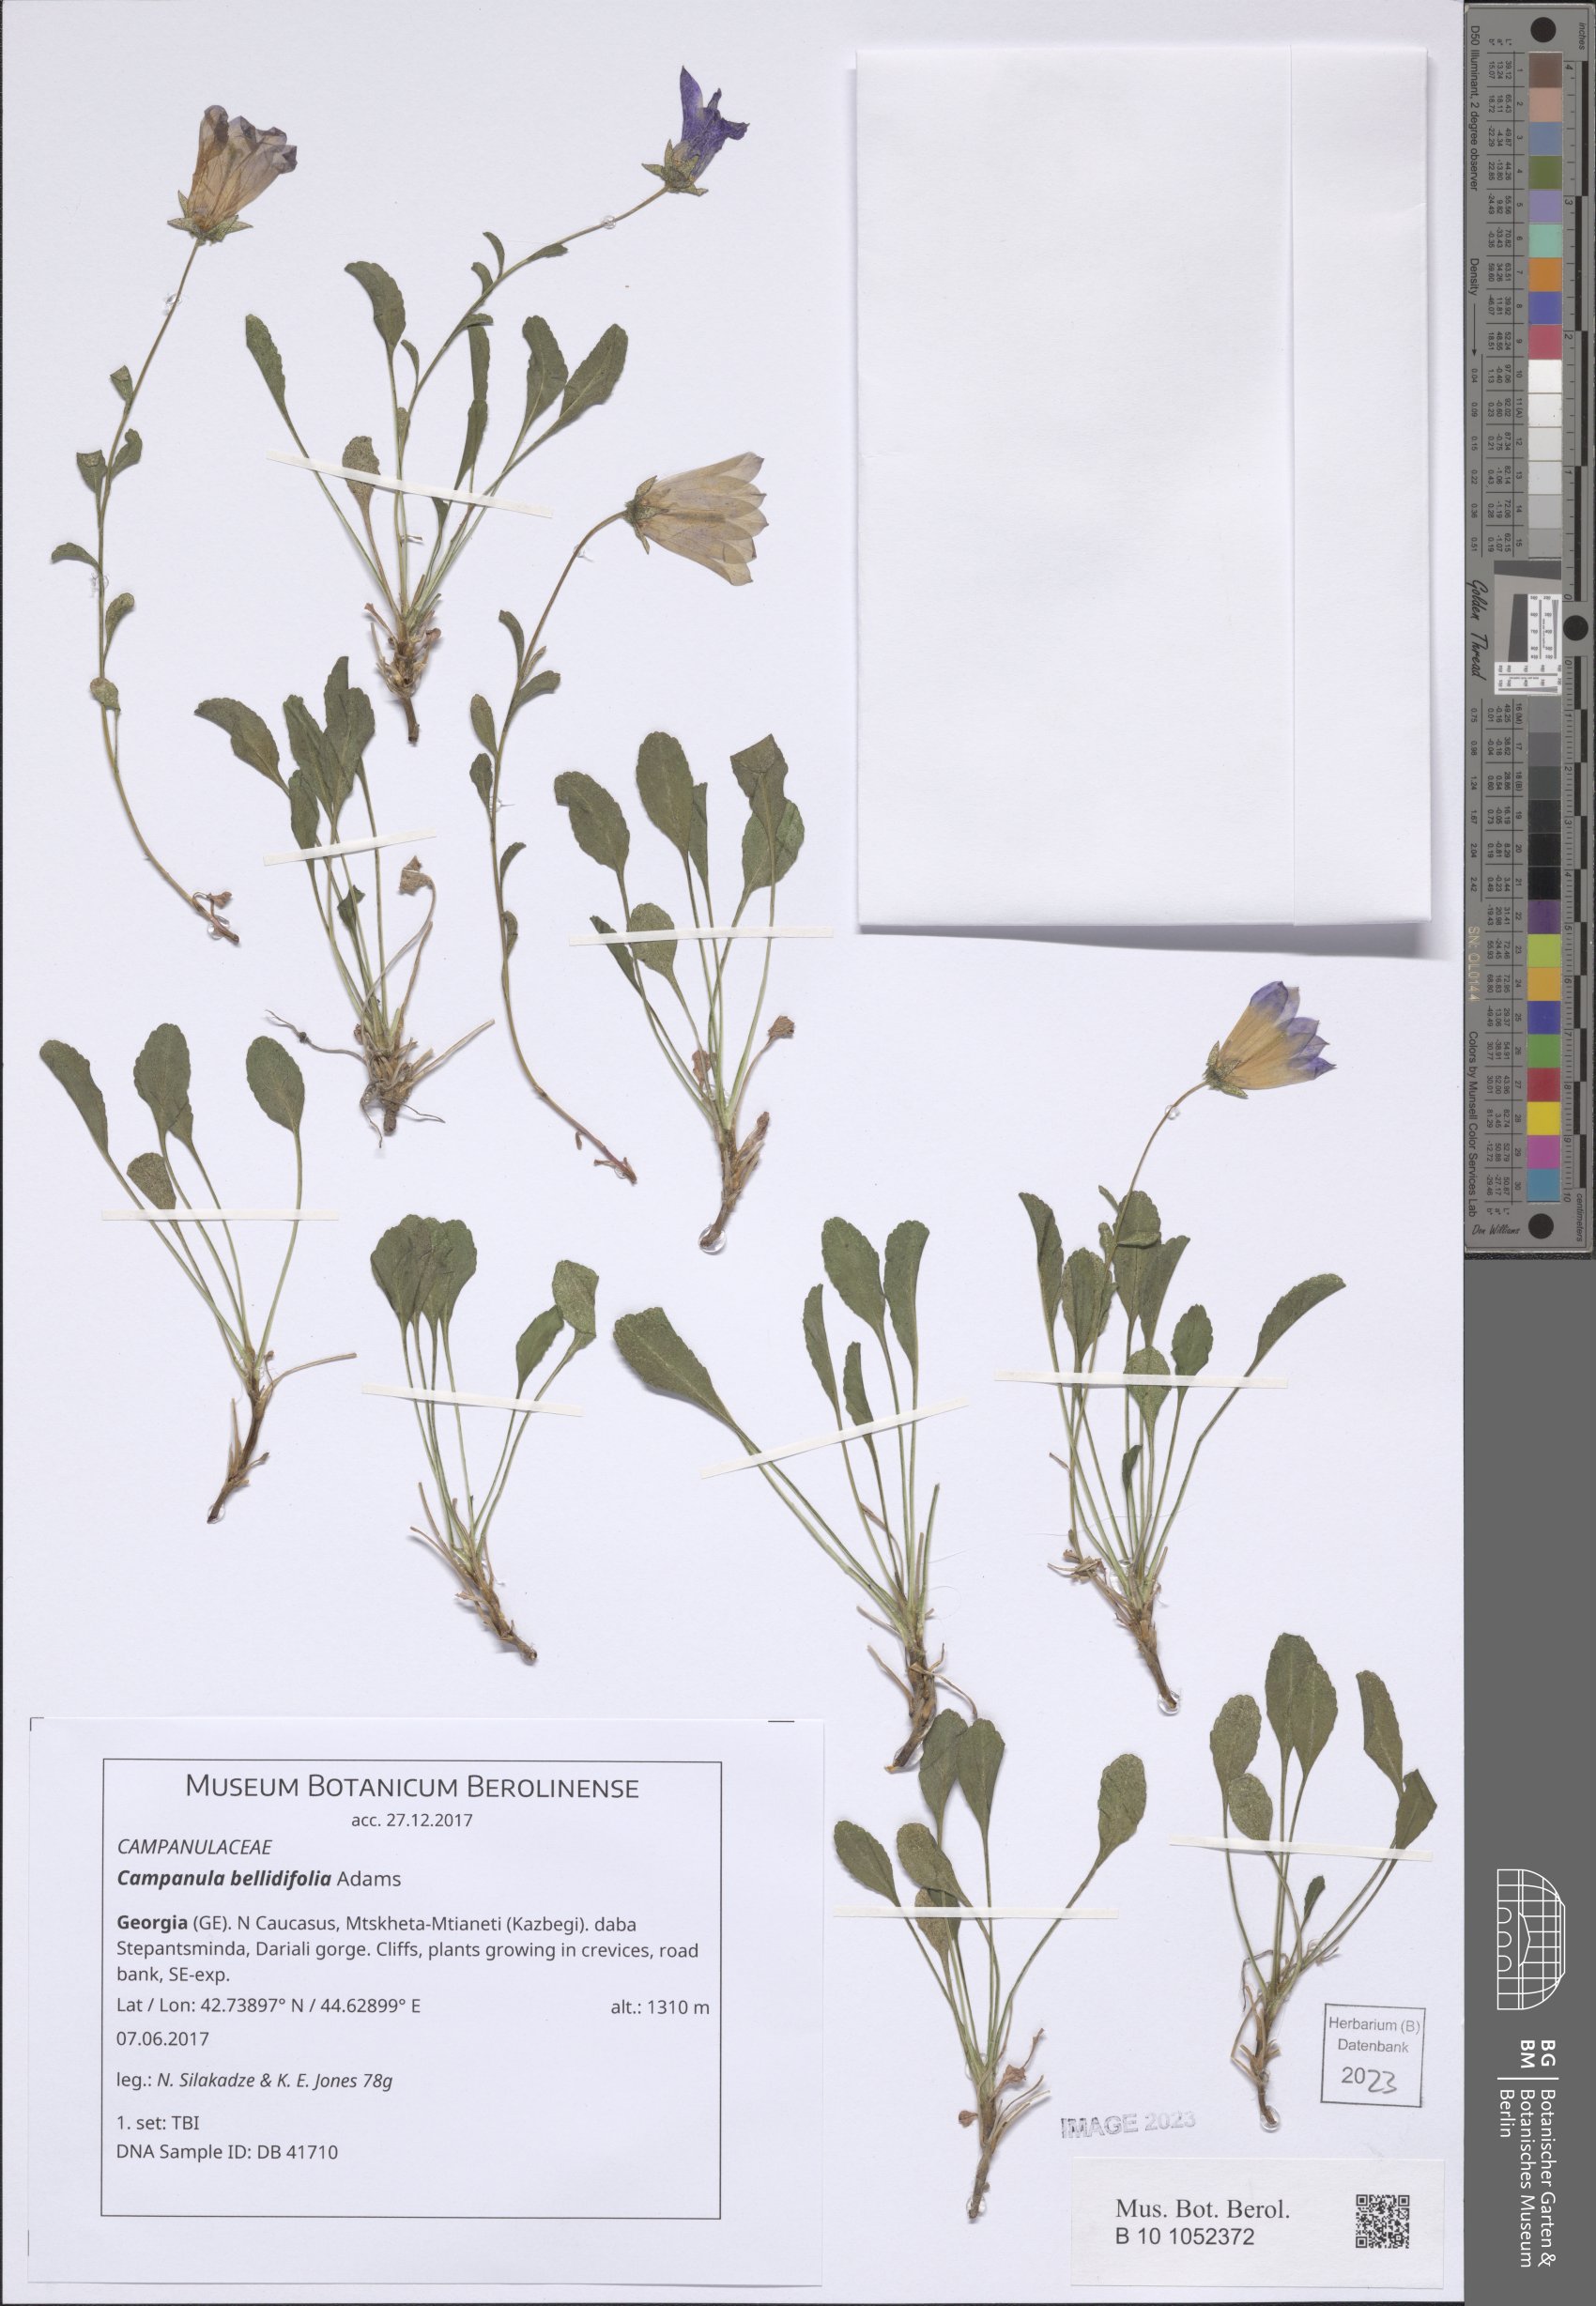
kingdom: Plantae
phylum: Tracheophyta
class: Magnoliopsida
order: Asterales
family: Campanulaceae
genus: Campanula
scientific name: Campanula bellidifolia
